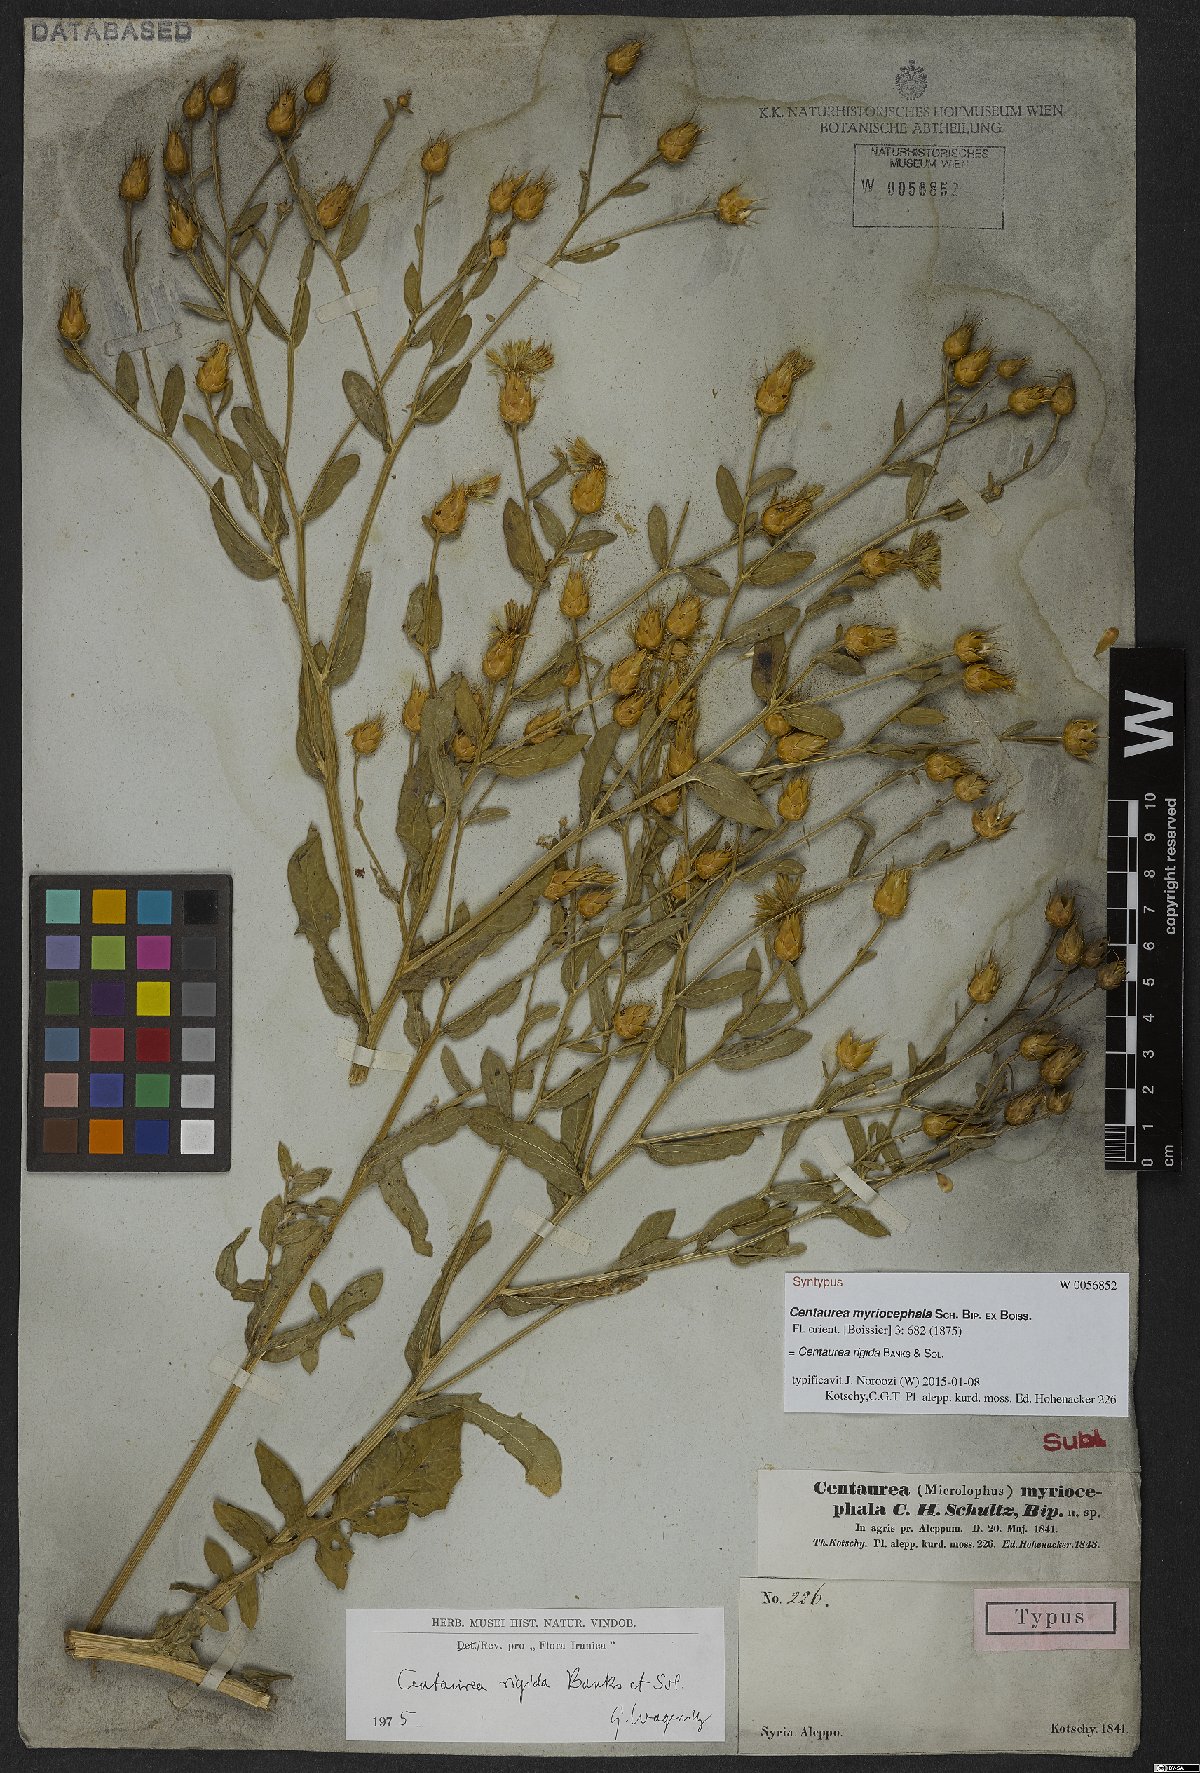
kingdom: Plantae
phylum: Tracheophyta
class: Magnoliopsida
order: Asterales
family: Asteraceae
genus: Centaurea
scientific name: Centaurea rigida
